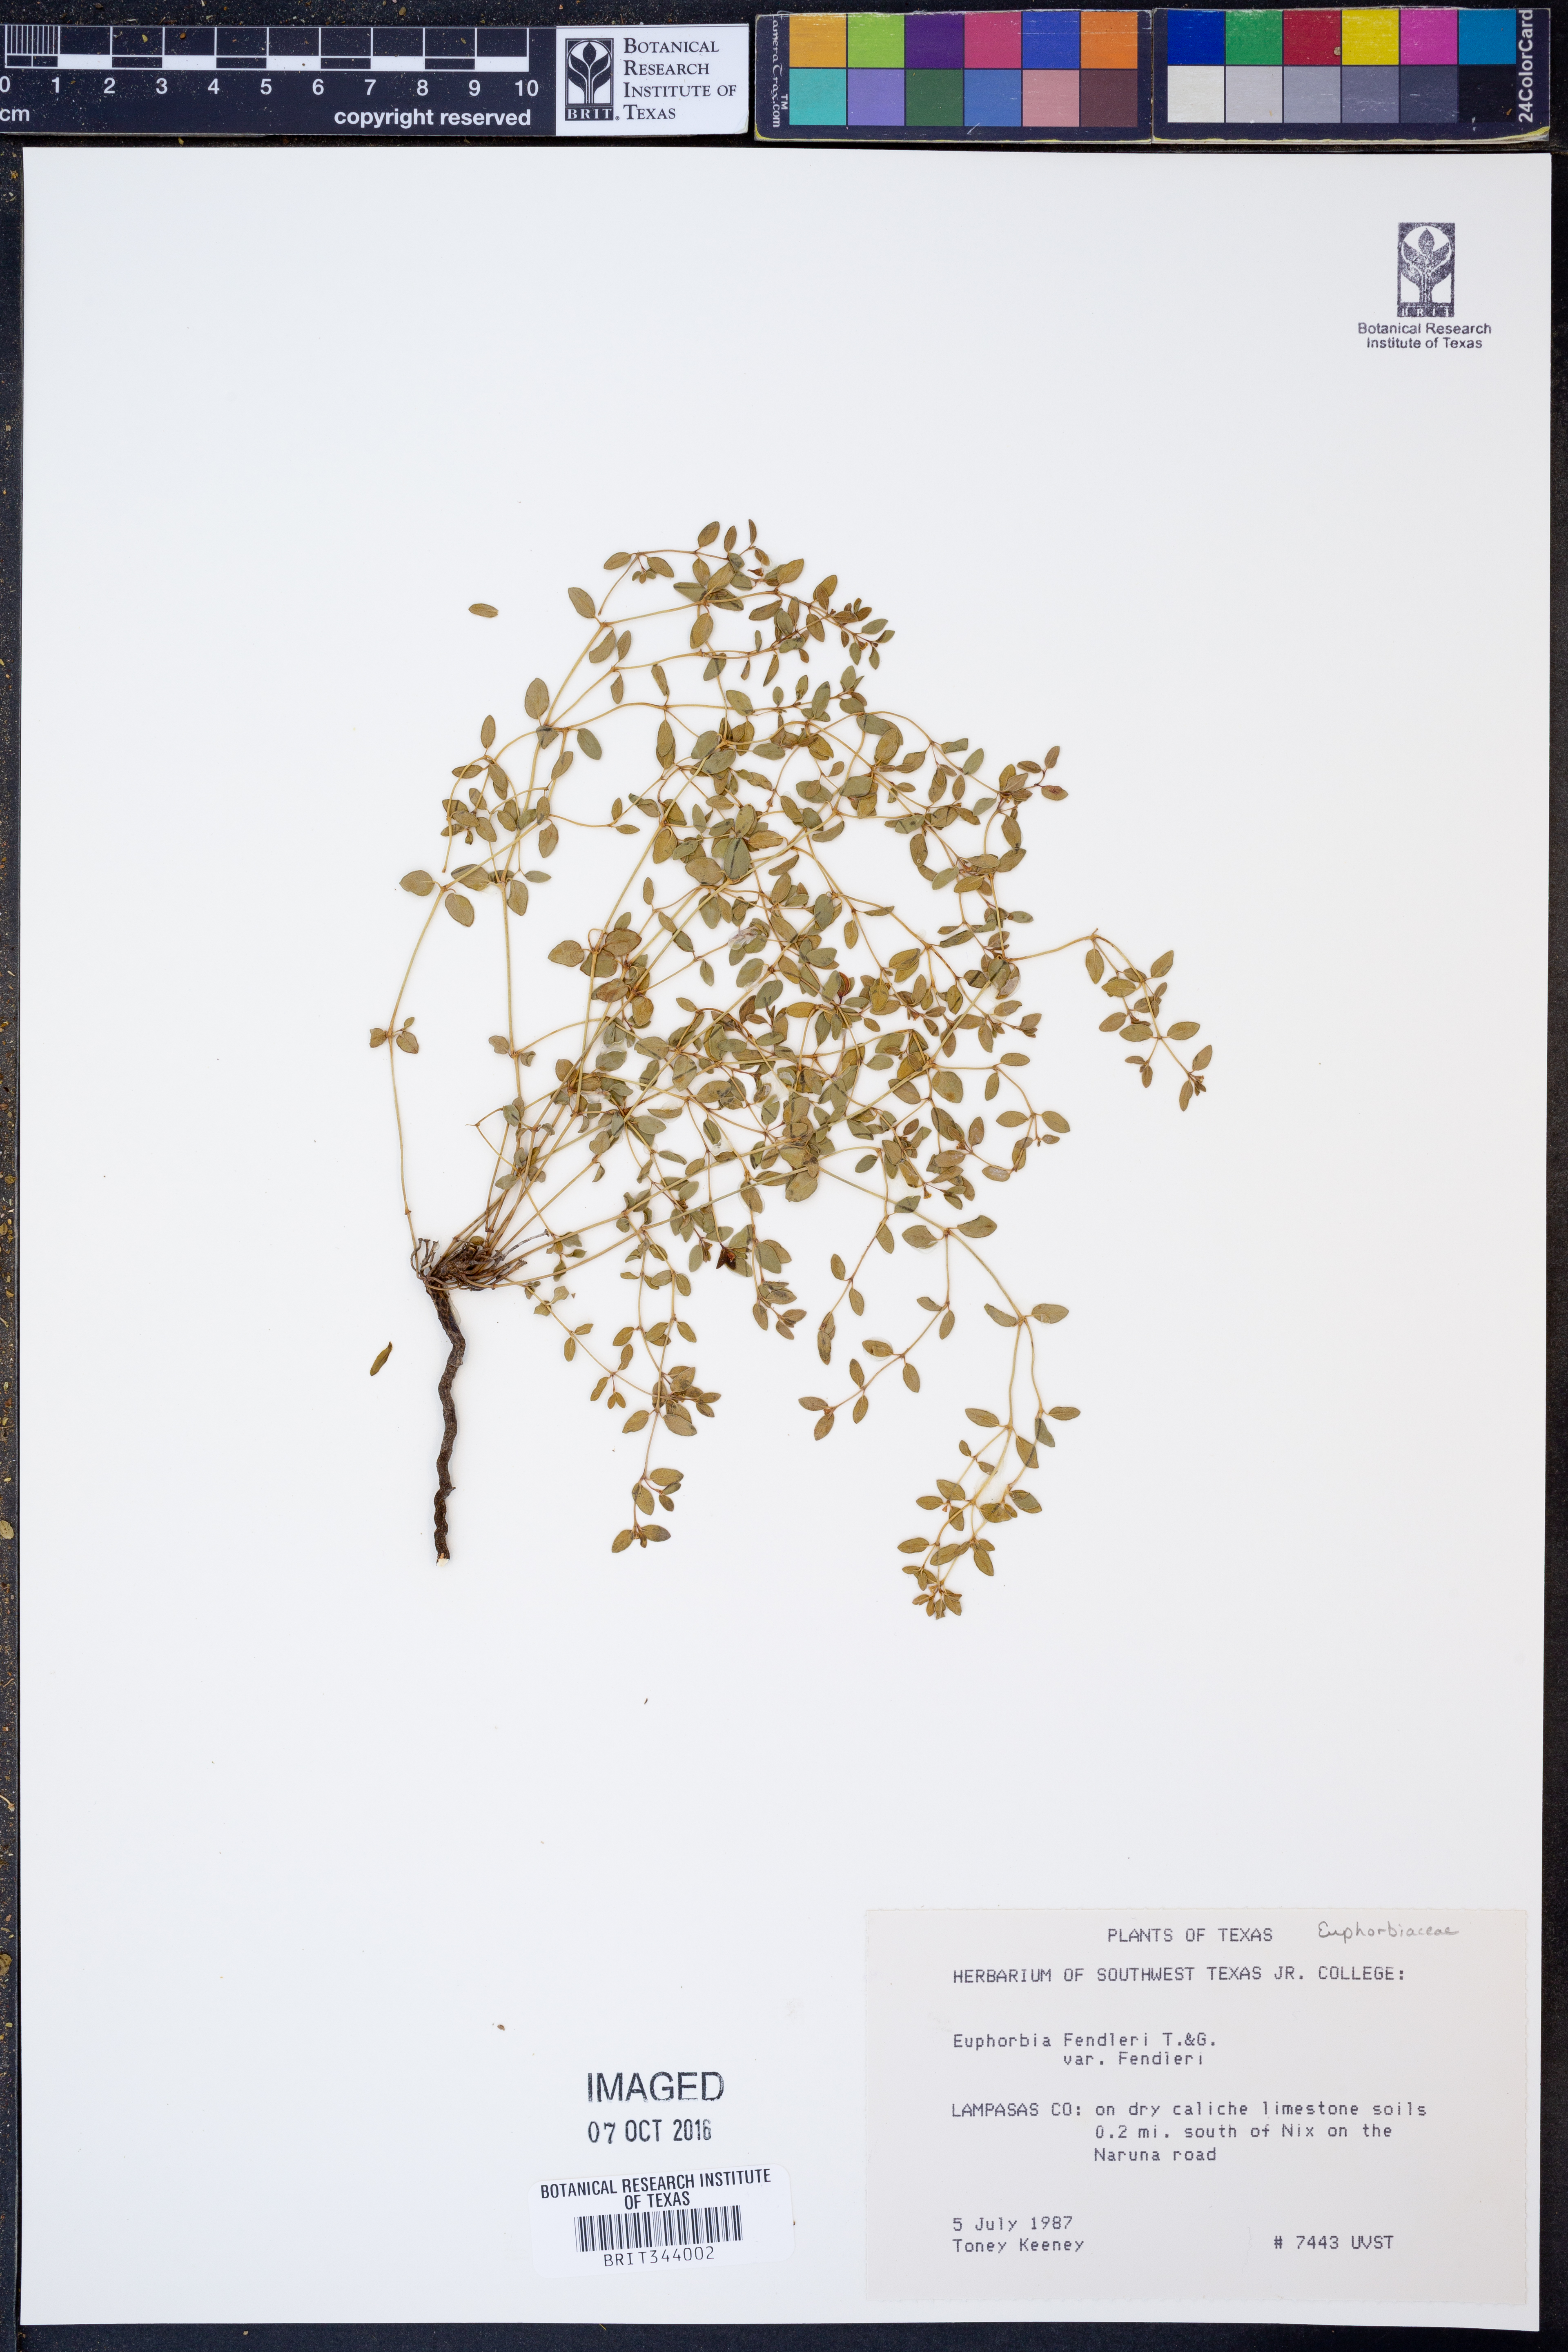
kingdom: Plantae
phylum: Tracheophyta
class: Magnoliopsida
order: Malpighiales
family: Euphorbiaceae
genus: Euphorbia
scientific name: Euphorbia fendleri
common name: Fendler's euphorbia
